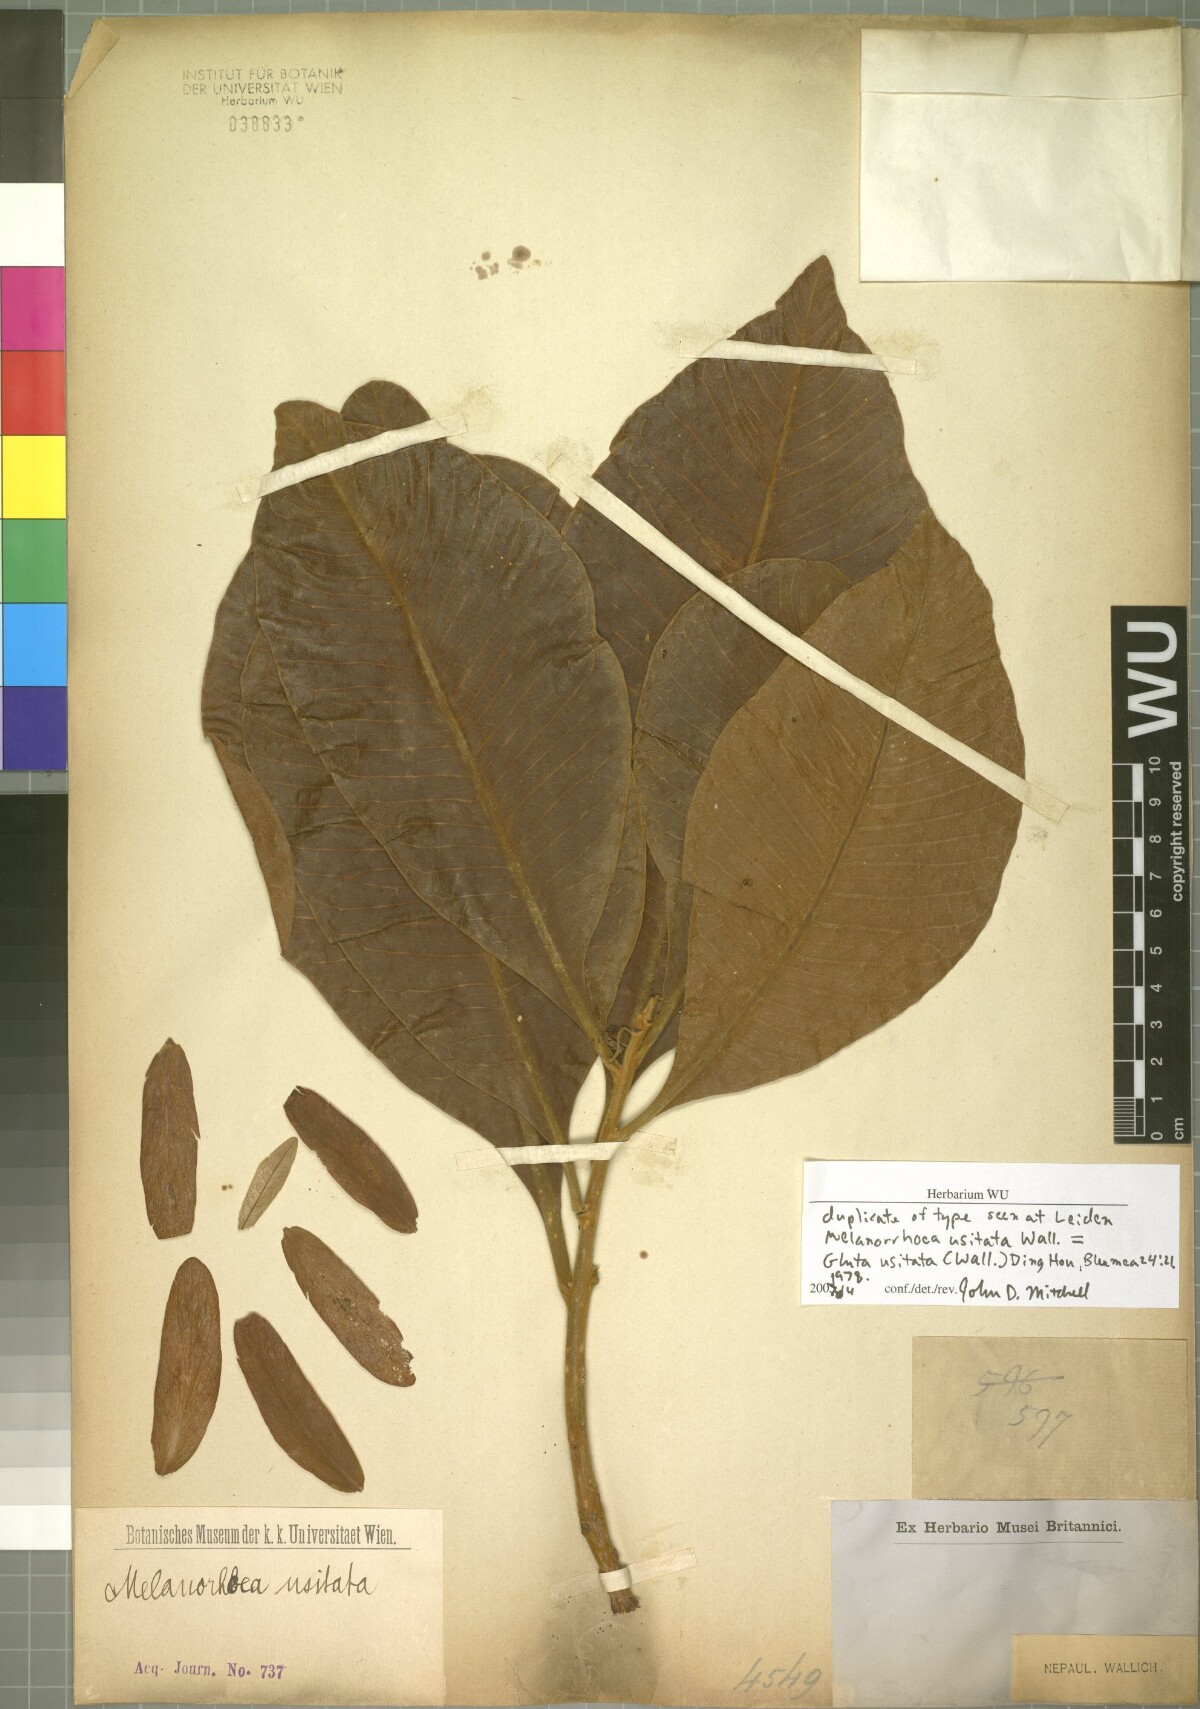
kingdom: Plantae
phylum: Tracheophyta
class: Magnoliopsida
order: Sapindales
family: Anacardiaceae
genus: Gluta
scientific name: Gluta usitata
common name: Black varnishtree
